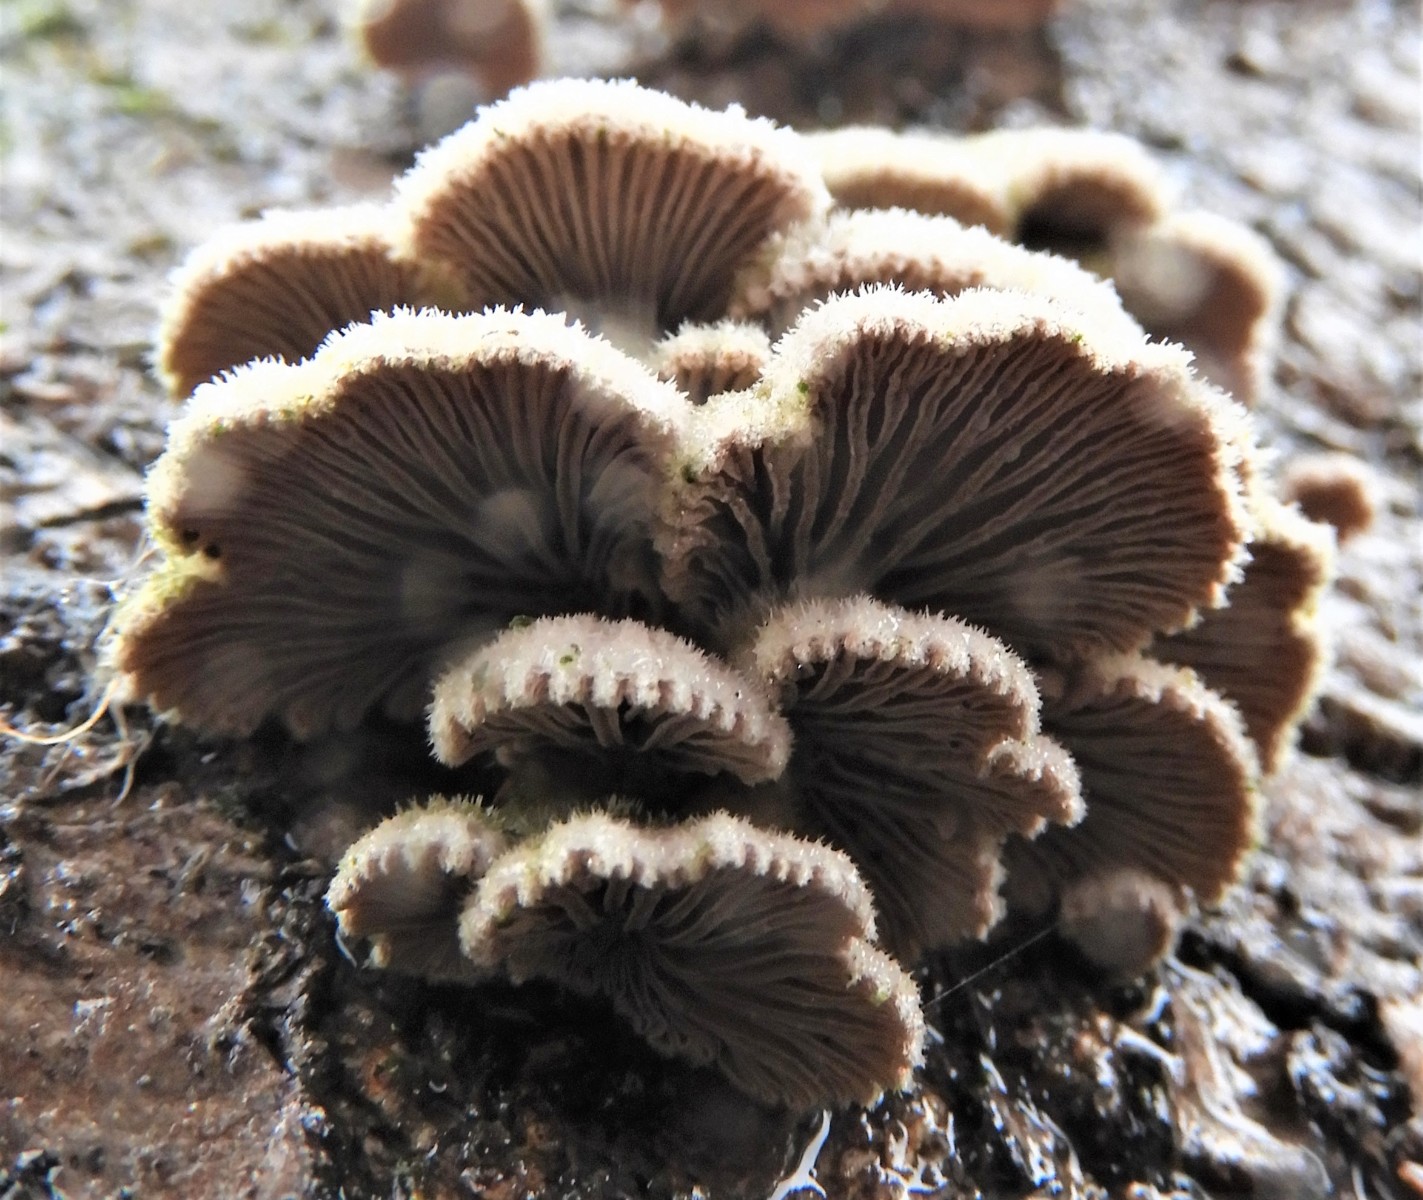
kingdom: Fungi
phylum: Basidiomycota
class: Agaricomycetes
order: Agaricales
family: Schizophyllaceae
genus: Schizophyllum
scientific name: Schizophyllum commune
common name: kløvblad
